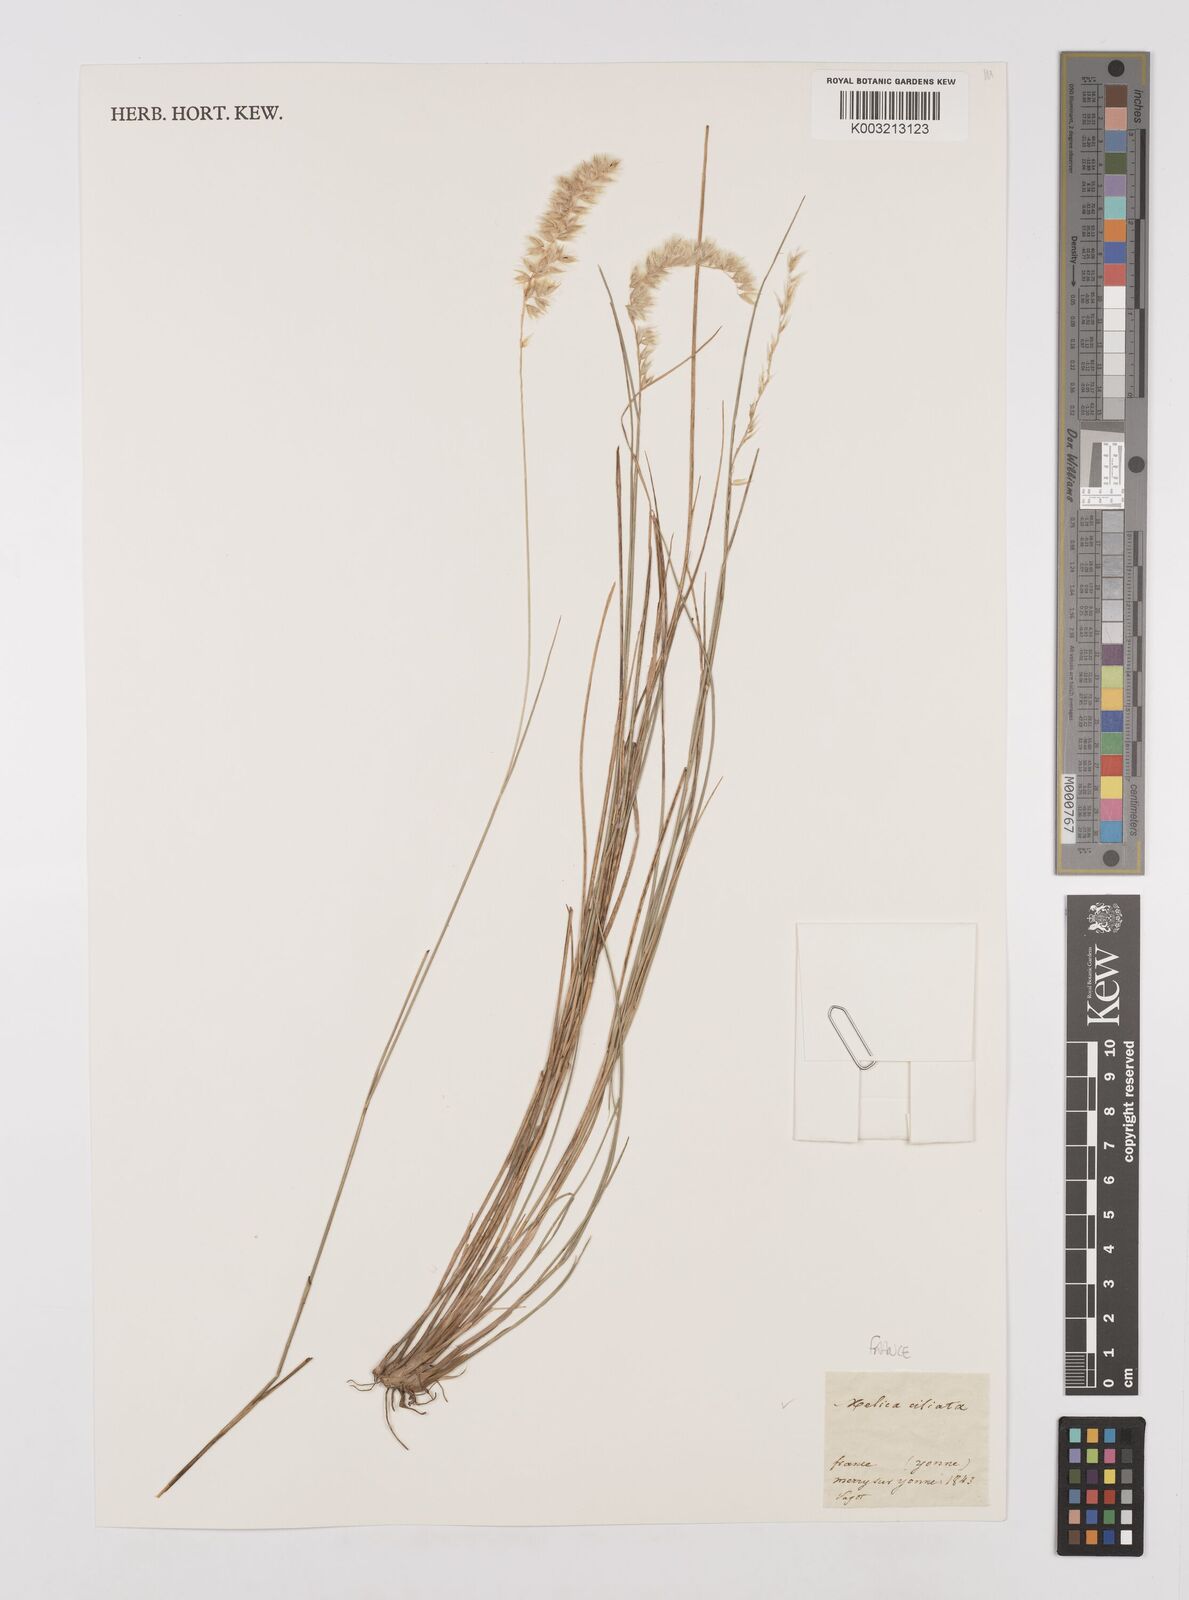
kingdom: Plantae
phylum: Tracheophyta
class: Liliopsida
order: Poales
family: Poaceae
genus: Melica
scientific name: Melica ciliata
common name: Hairy melicgrass
